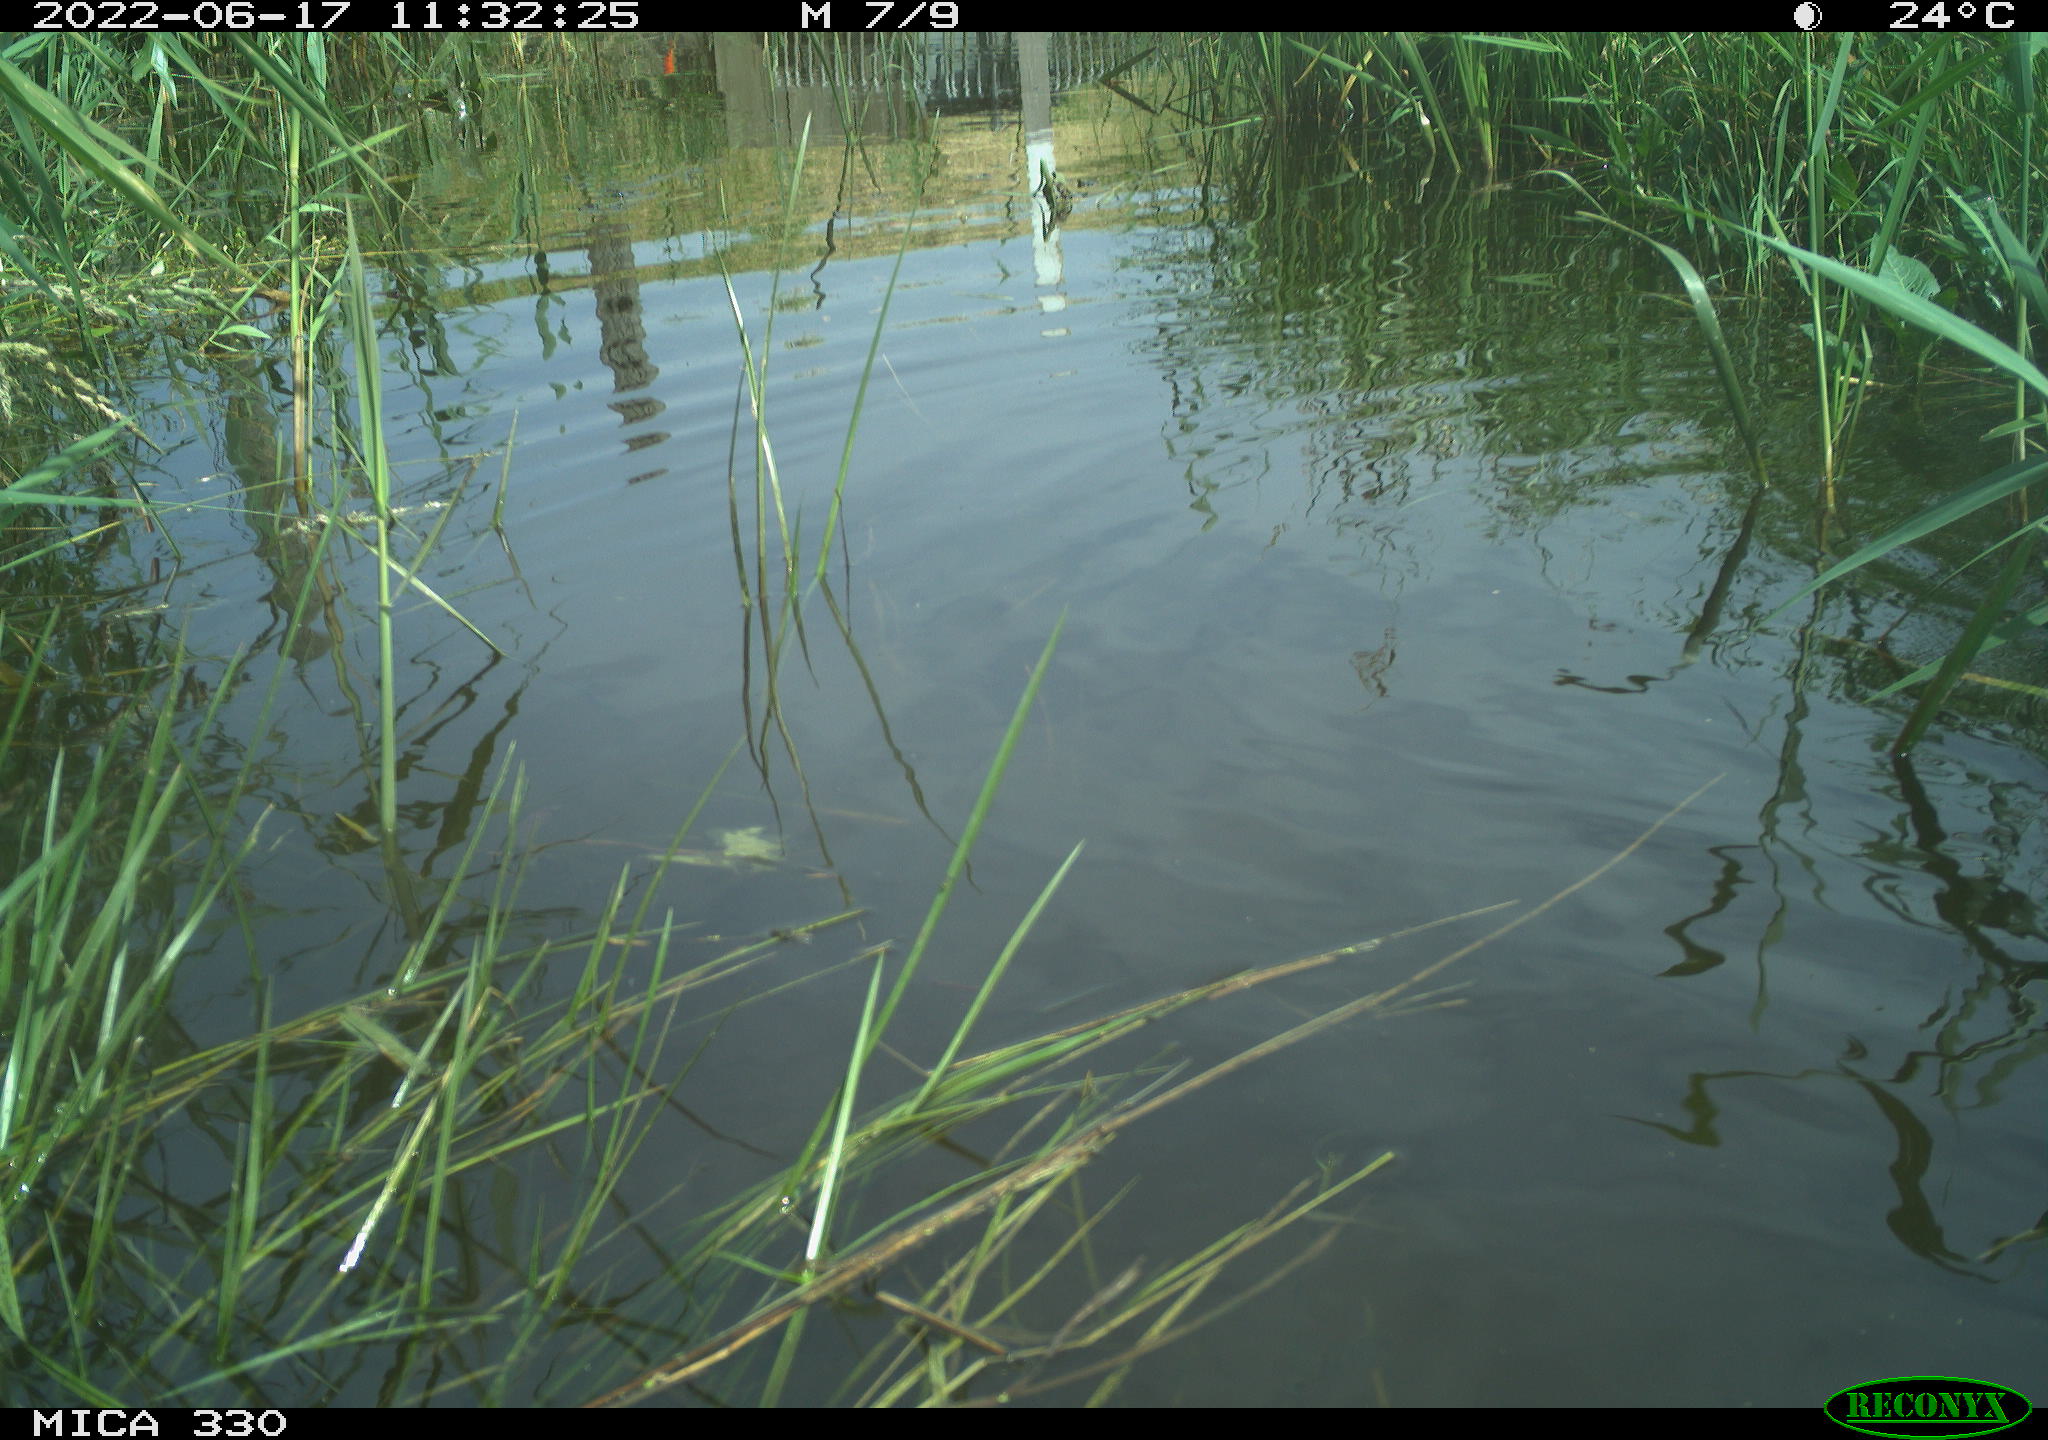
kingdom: Animalia
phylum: Chordata
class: Aves
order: Anseriformes
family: Anatidae
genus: Mareca
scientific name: Mareca strepera
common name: Gadwall
